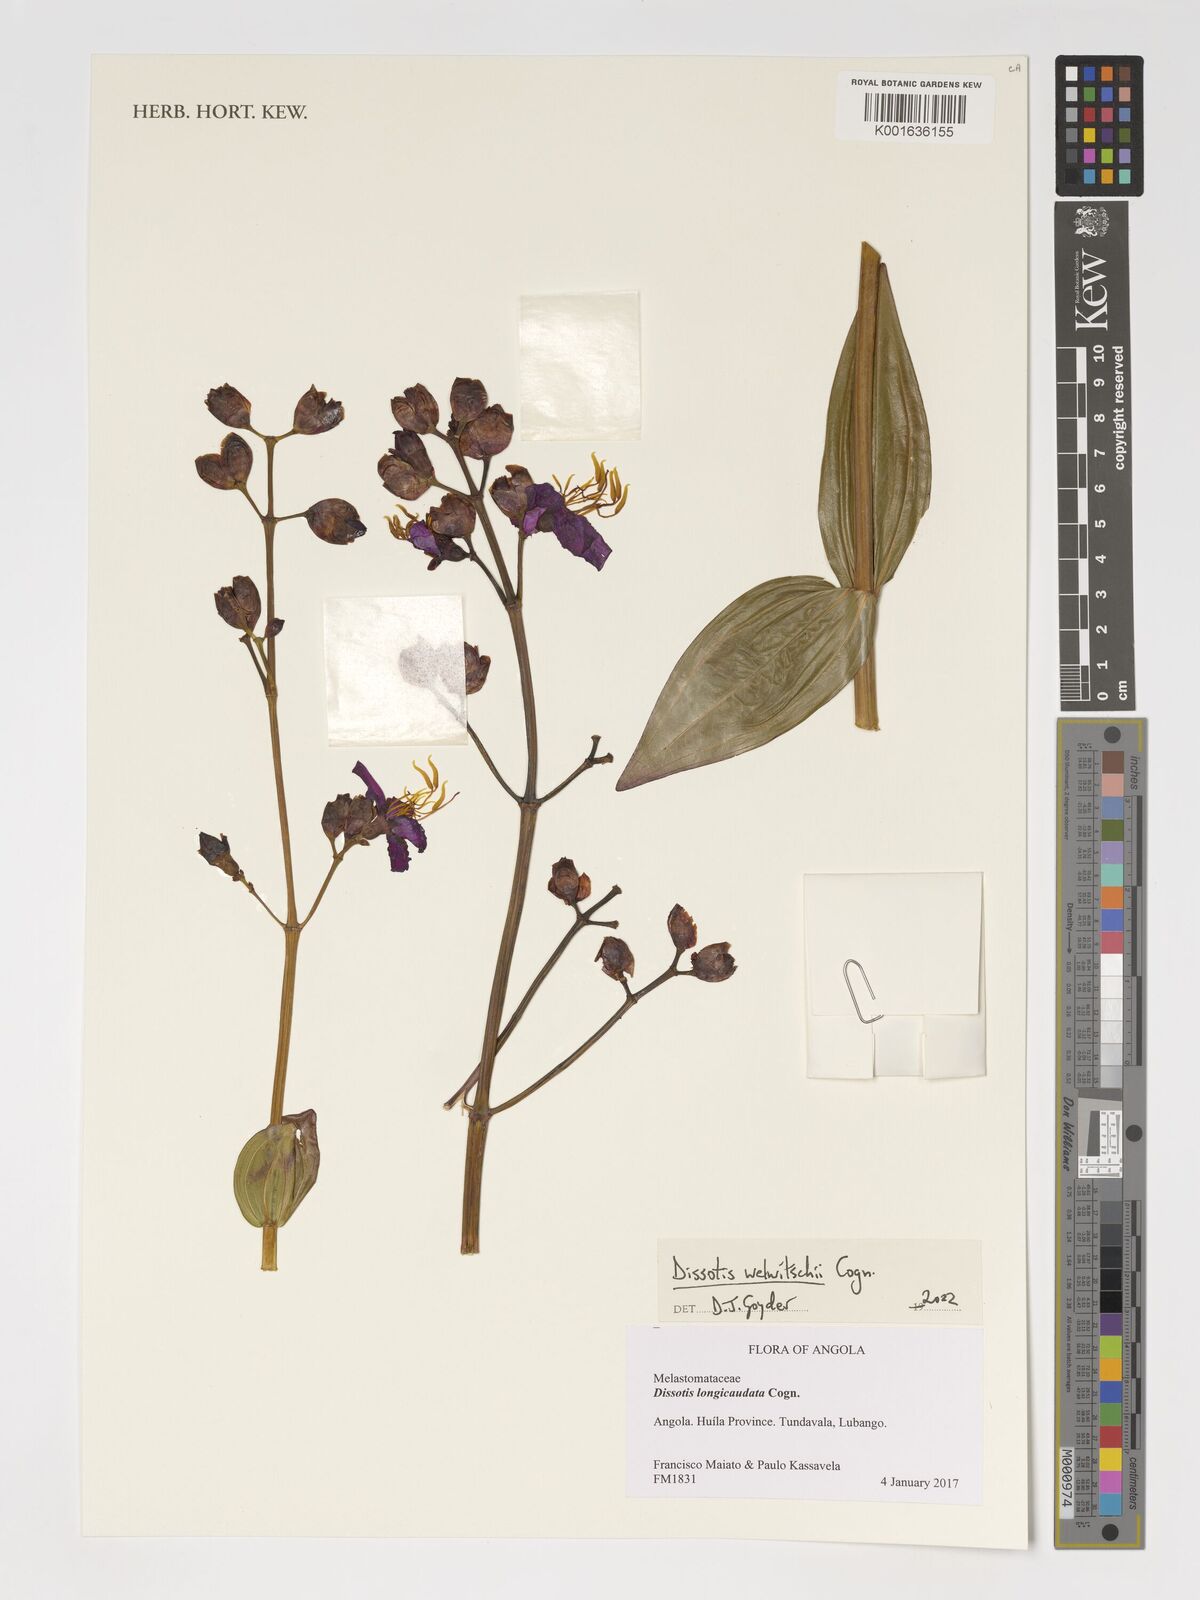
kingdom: Plantae
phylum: Tracheophyta
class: Magnoliopsida
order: Myrtales
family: Melastomataceae
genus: Eleotis
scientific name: Eleotis welwitschii
